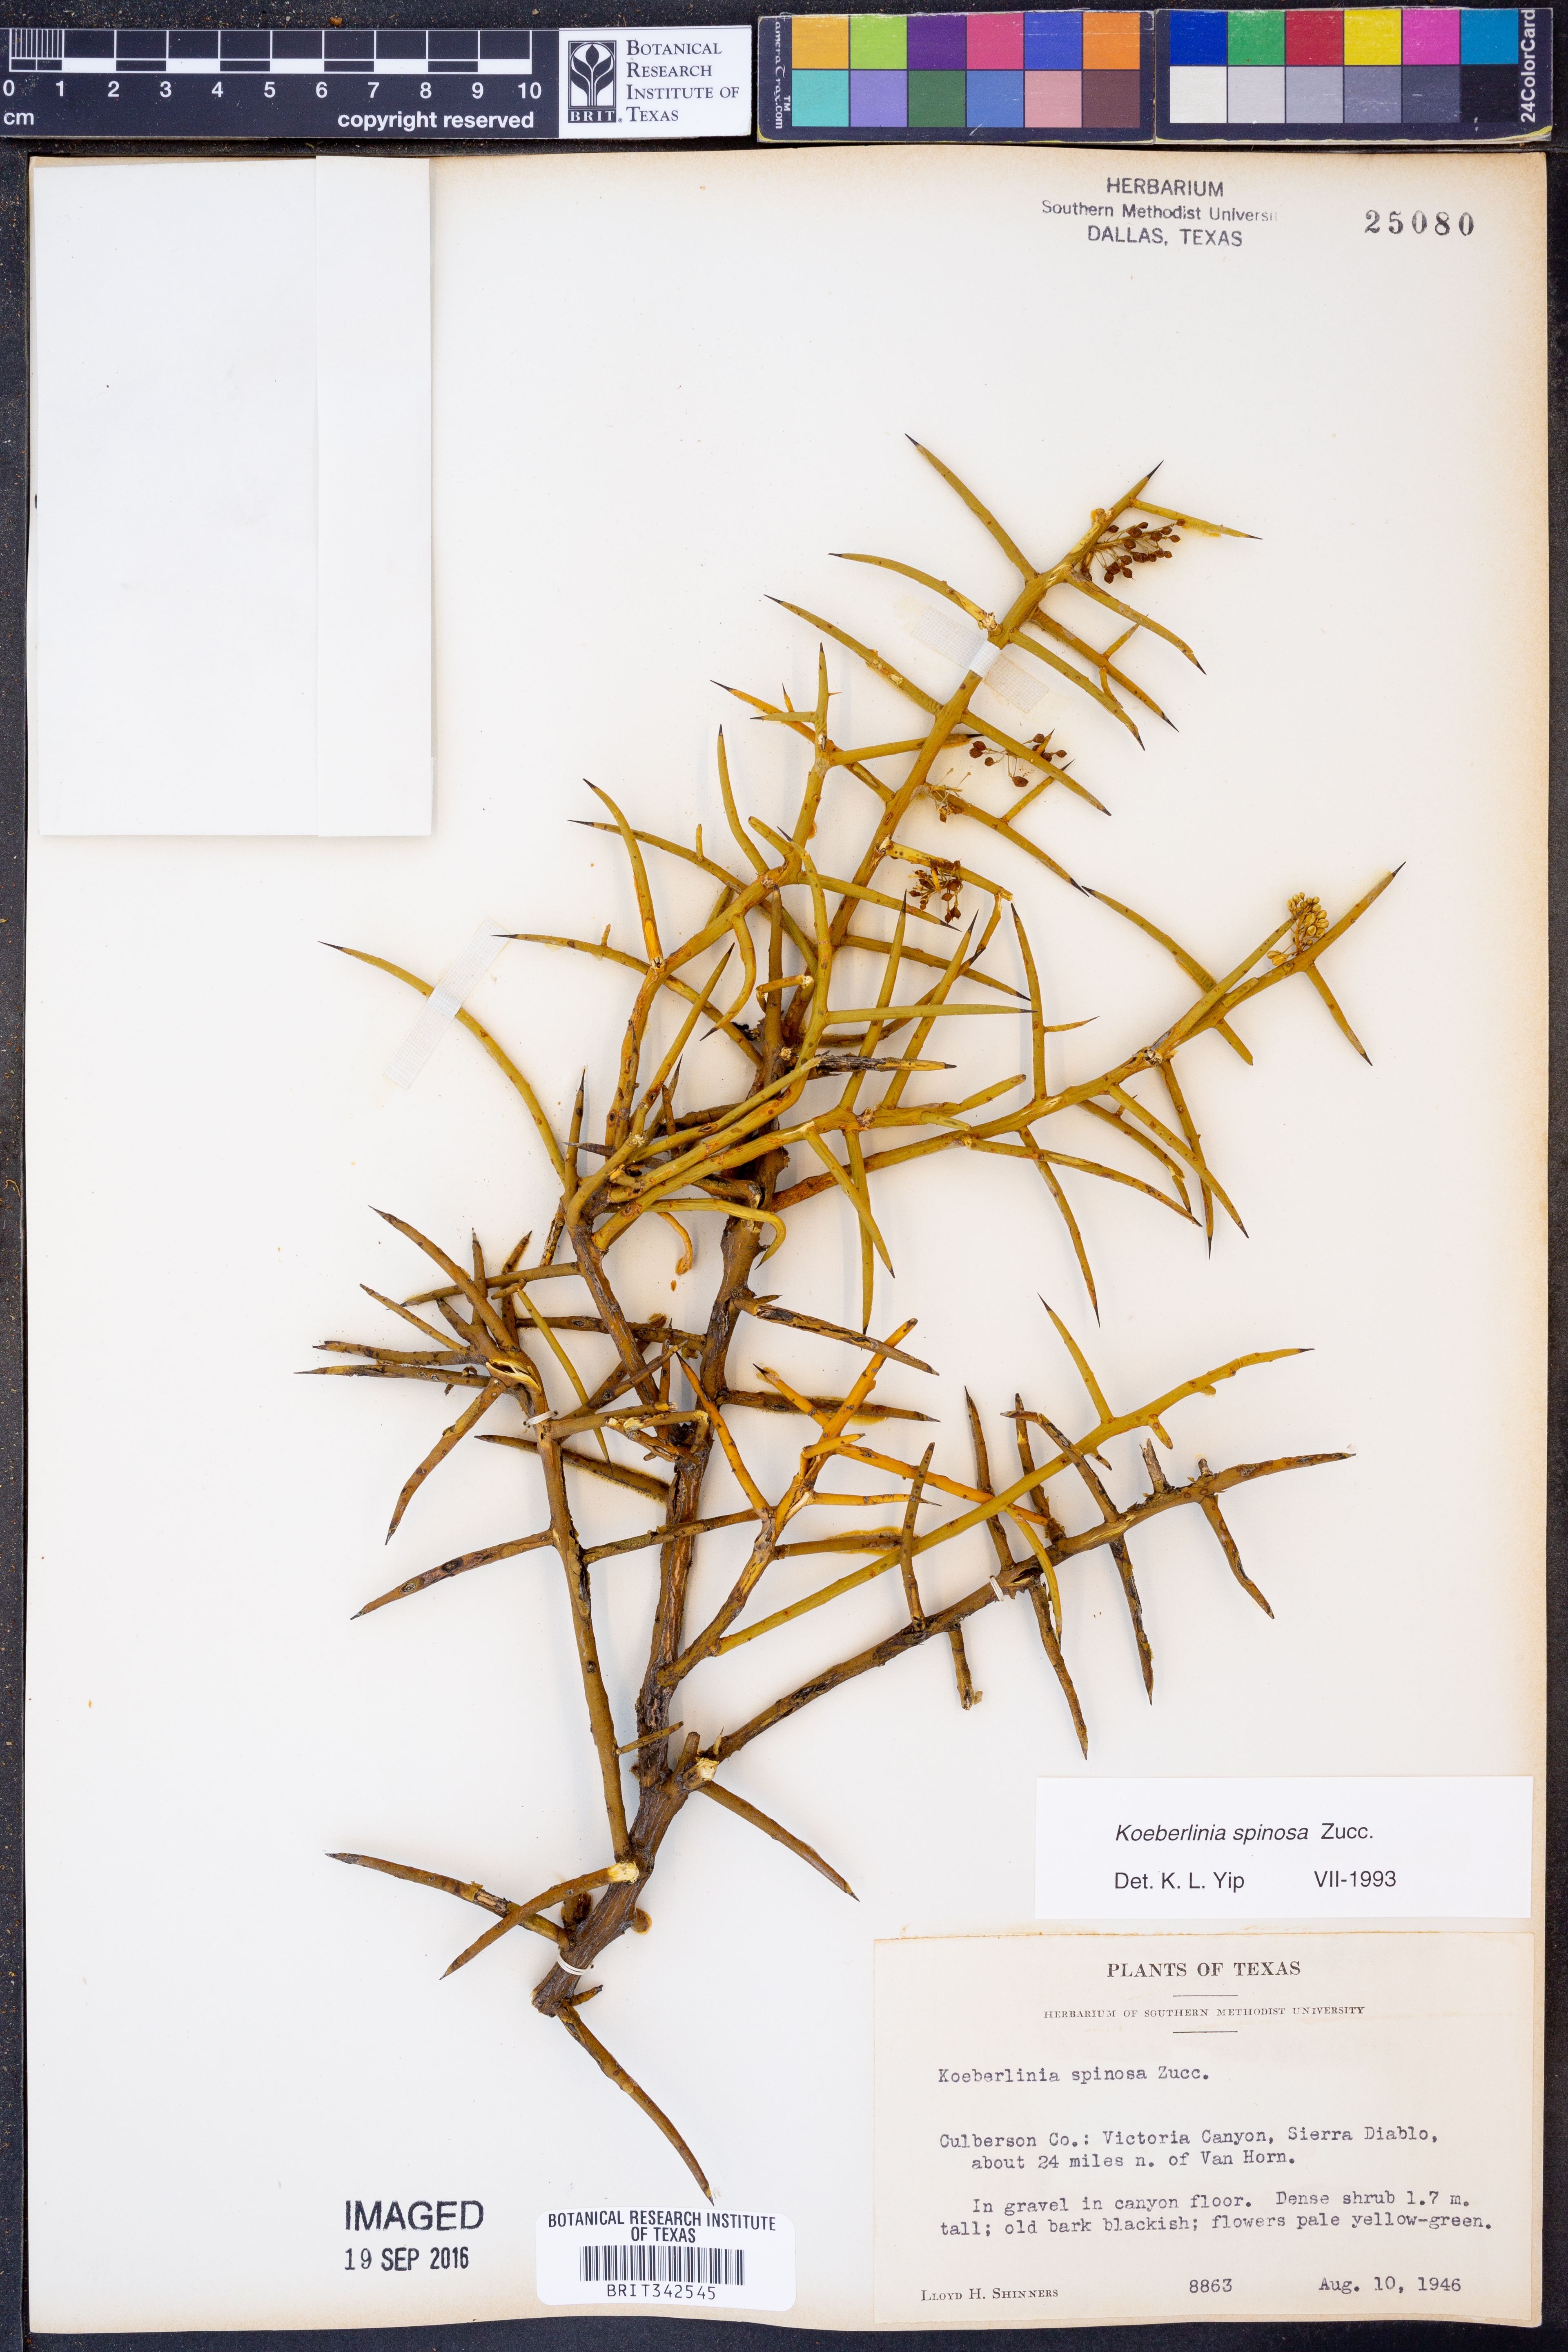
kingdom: Plantae
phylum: Tracheophyta
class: Magnoliopsida
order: Brassicales
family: Koeberliniaceae
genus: Koeberlinia
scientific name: Koeberlinia spinosa
